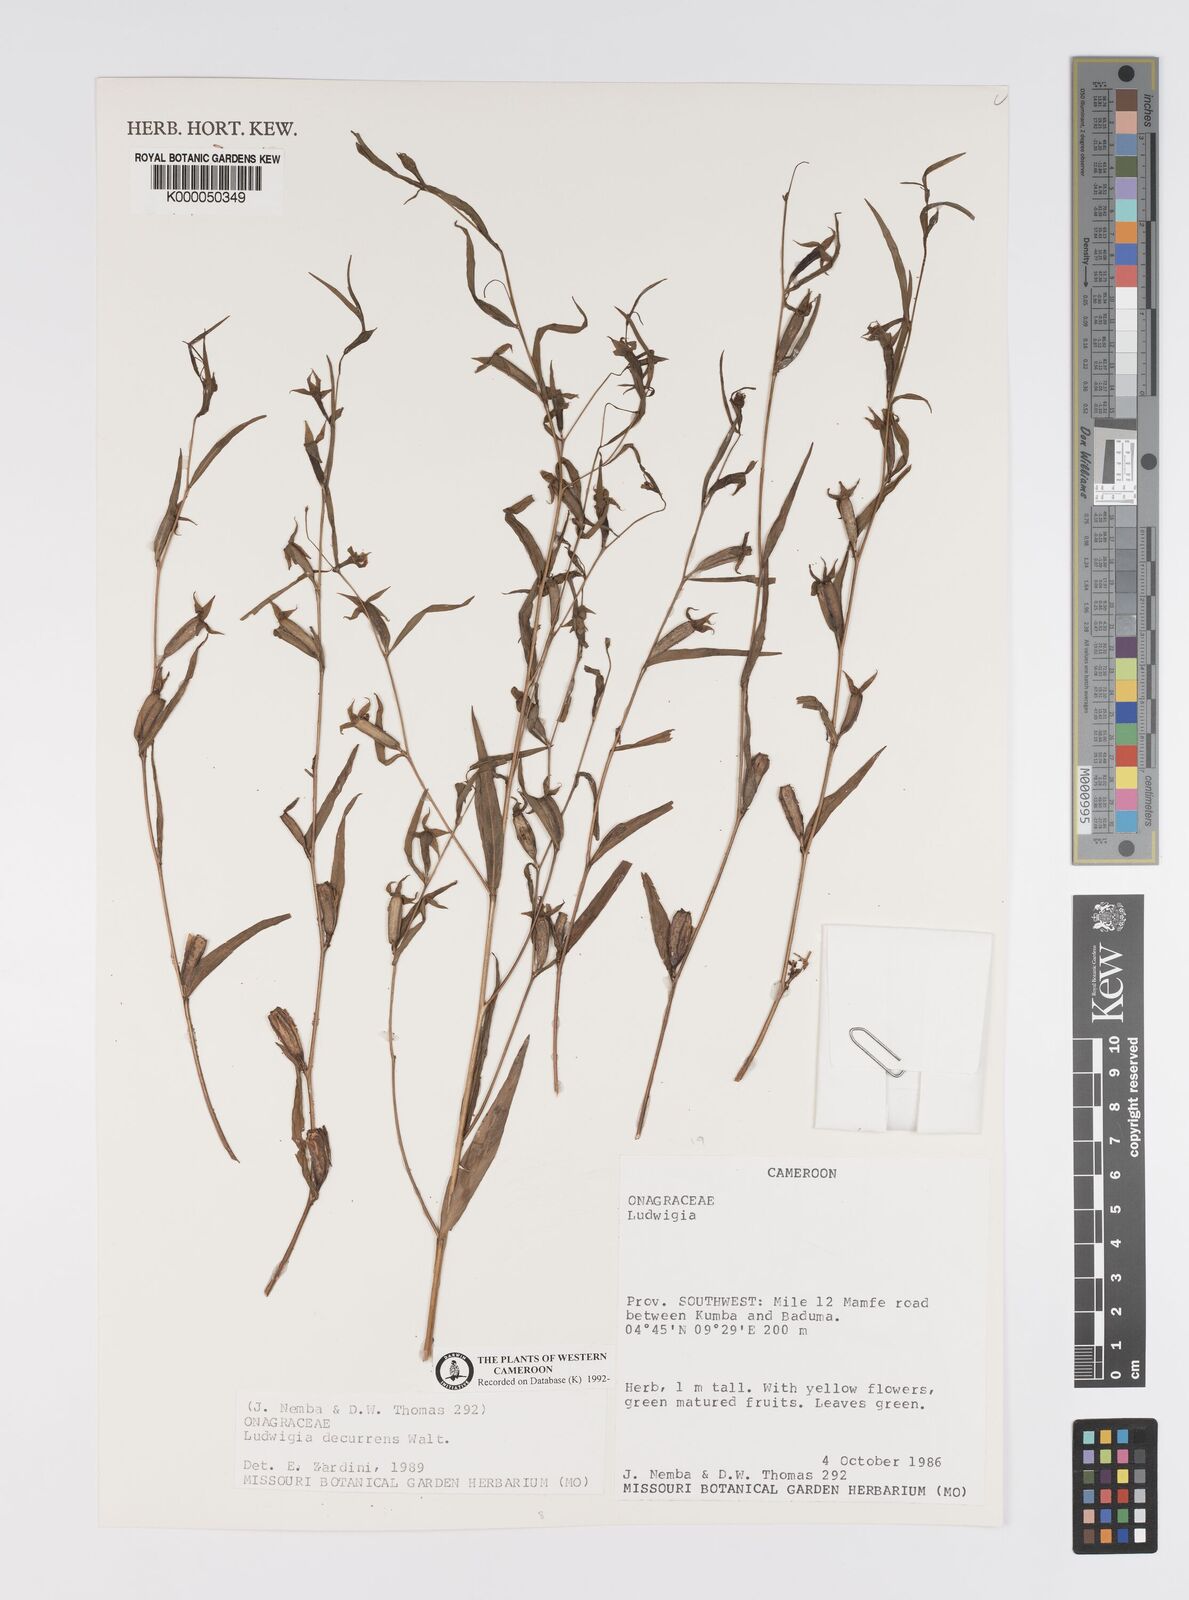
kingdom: Plantae
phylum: Tracheophyta
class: Magnoliopsida
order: Myrtales
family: Onagraceae
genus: Ludwigia
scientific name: Ludwigia decurrens
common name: Winged water-primrose
